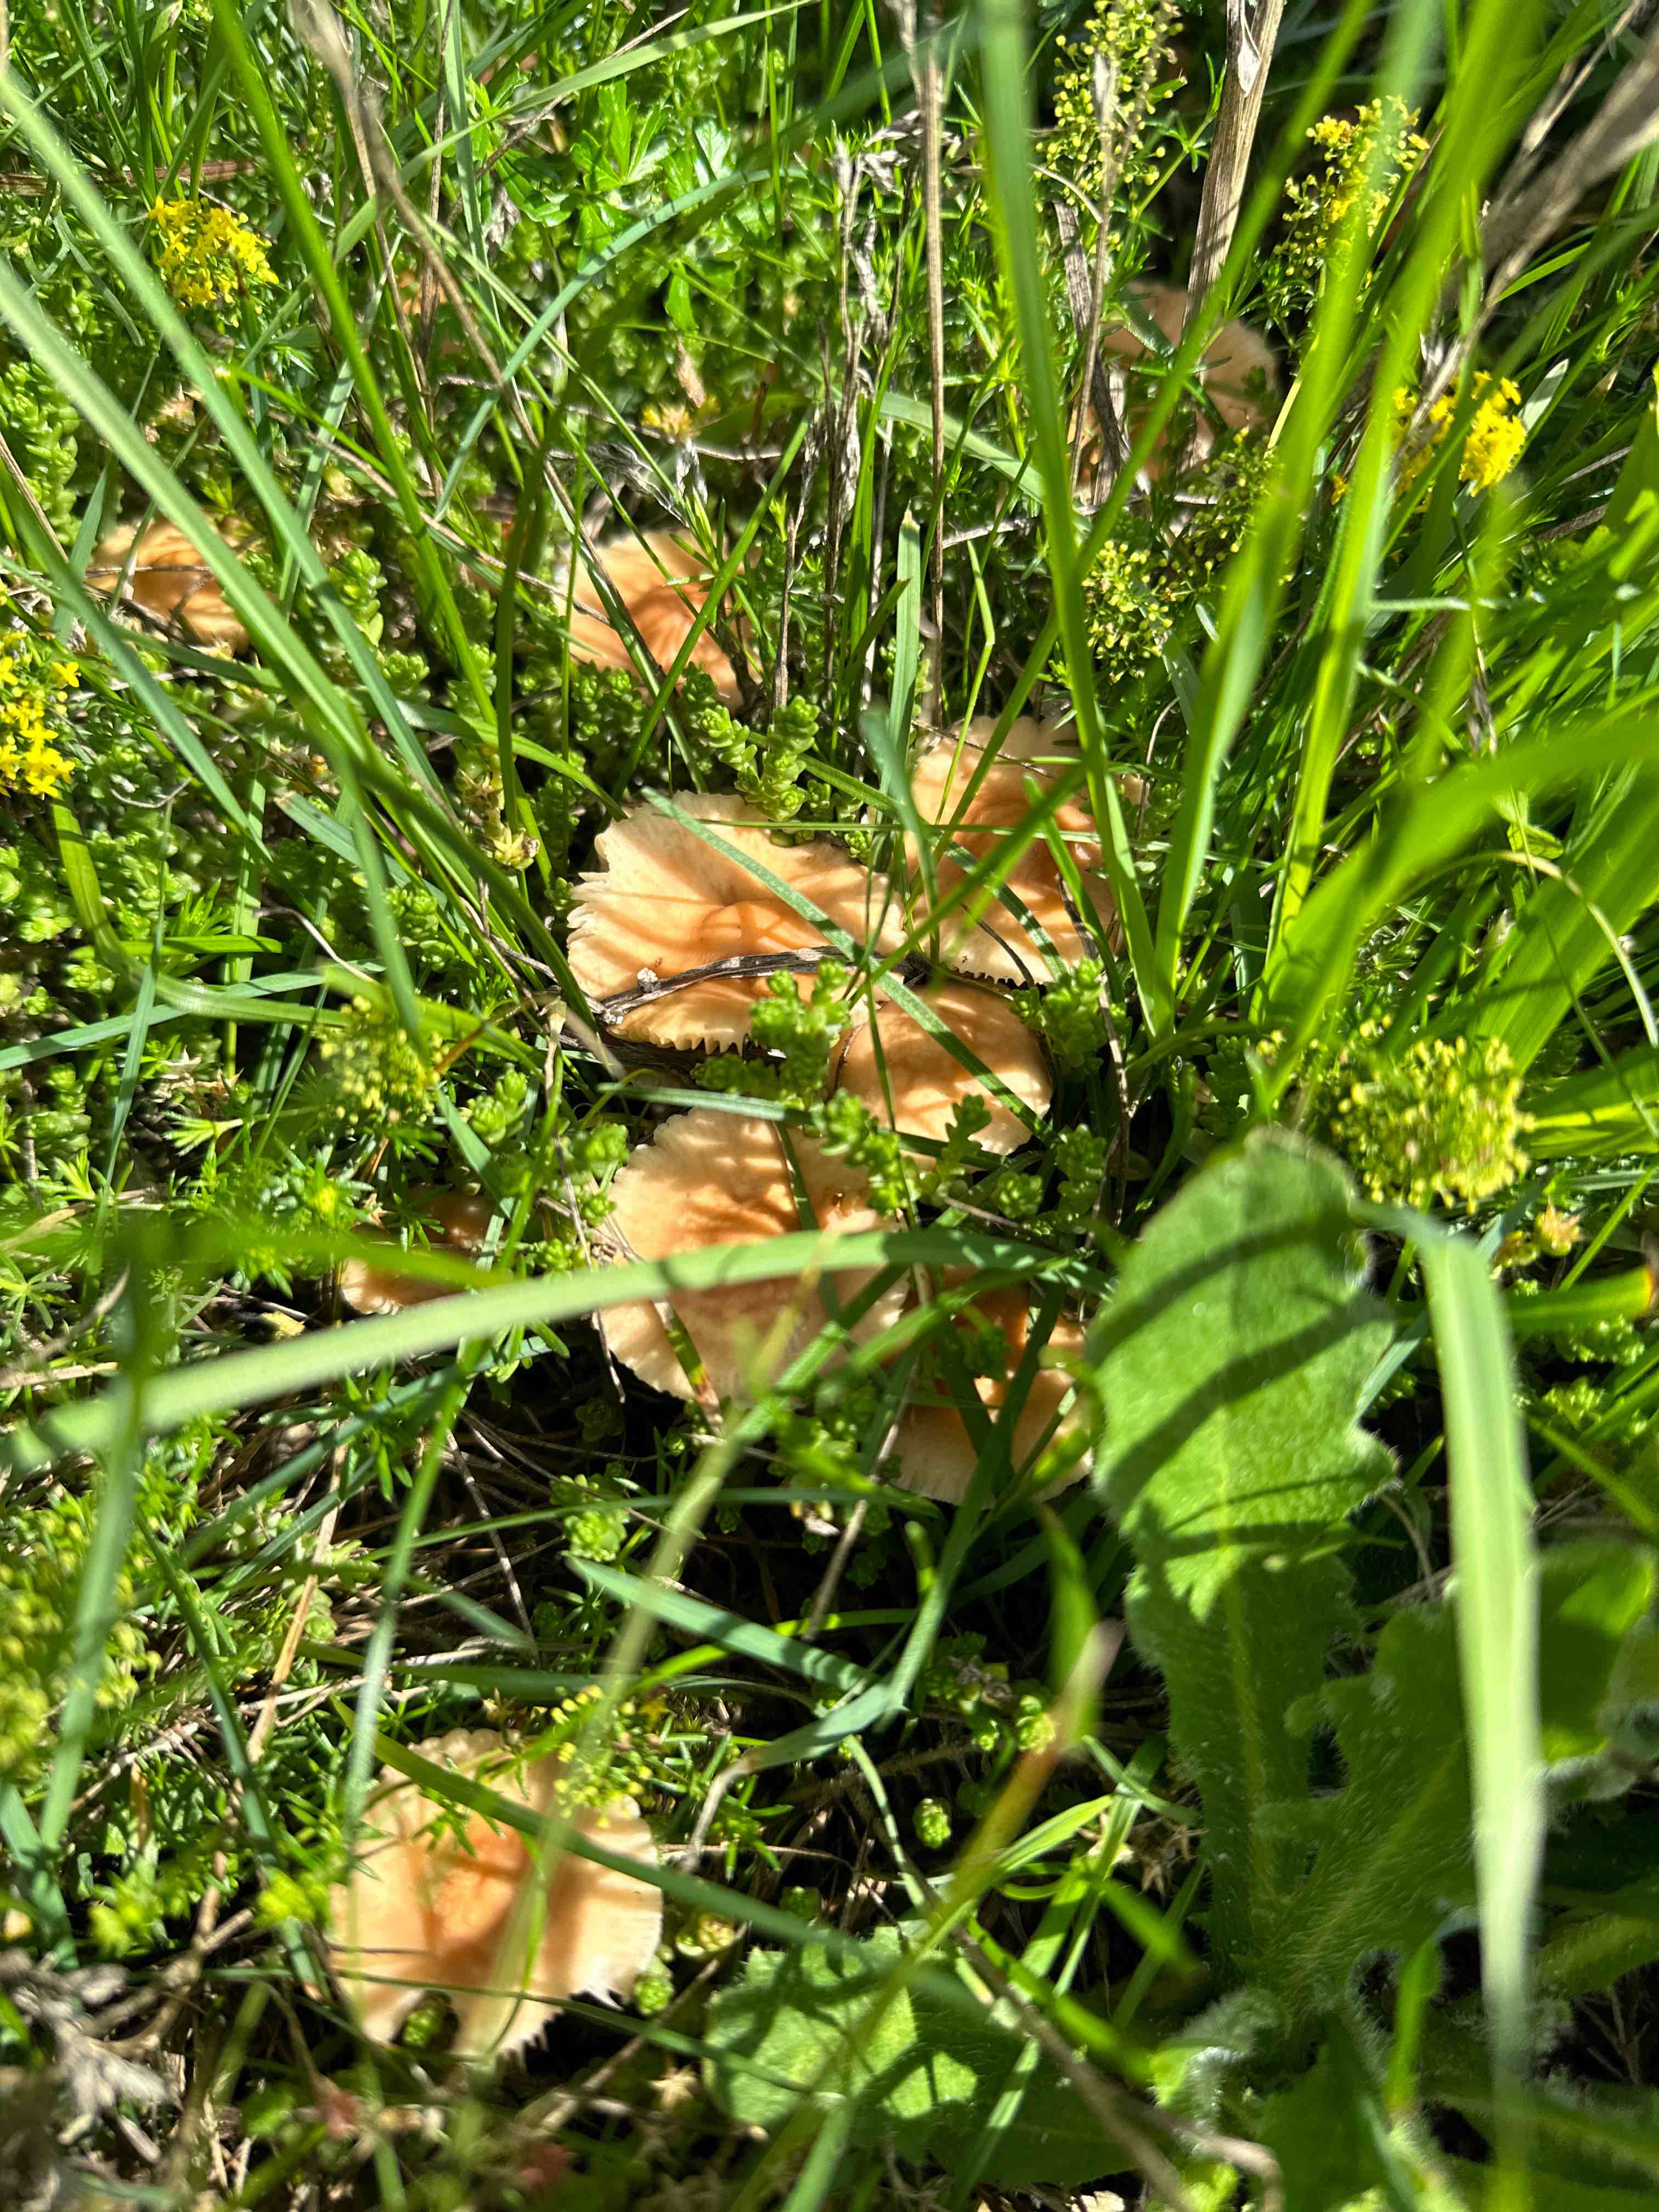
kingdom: Fungi
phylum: Basidiomycota
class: Agaricomycetes
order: Agaricales
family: Marasmiaceae
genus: Marasmius
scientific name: Marasmius oreades
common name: elledans-bruskhat
